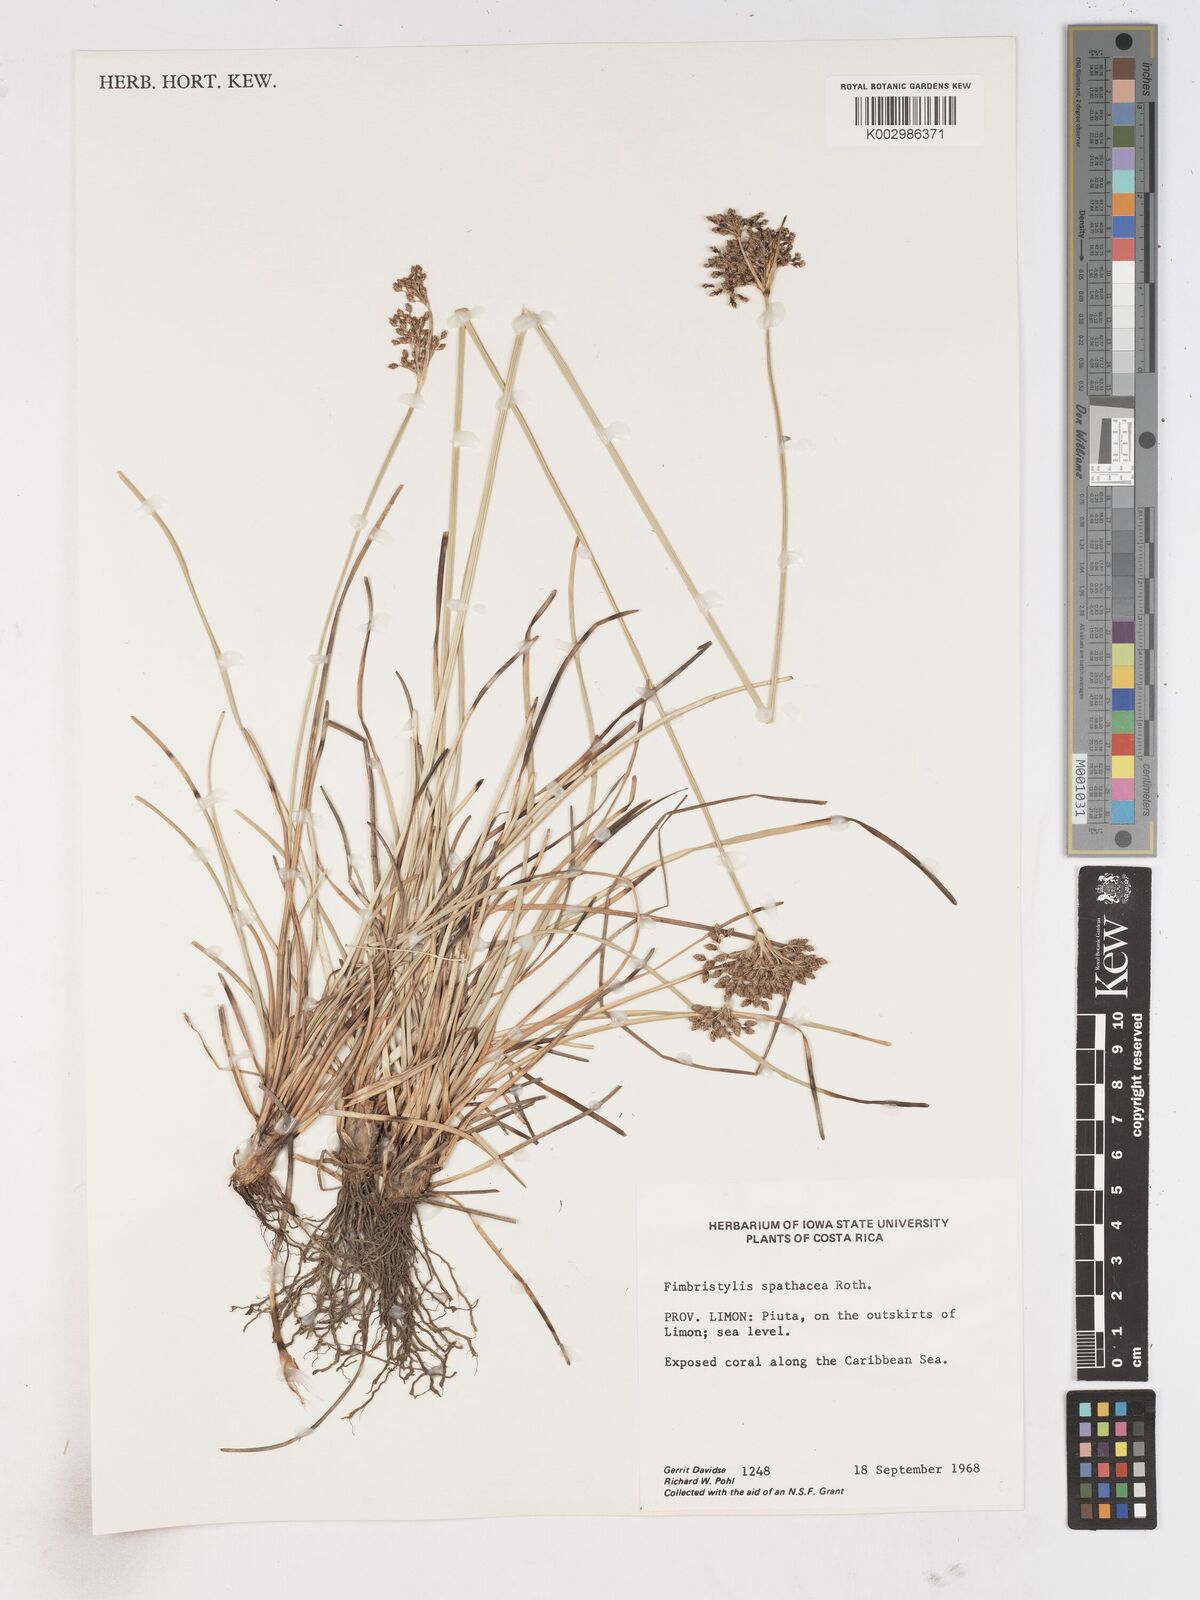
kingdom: Plantae
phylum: Tracheophyta
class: Liliopsida
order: Poales
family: Cyperaceae
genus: Fimbristylis
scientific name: Fimbristylis cymosa
